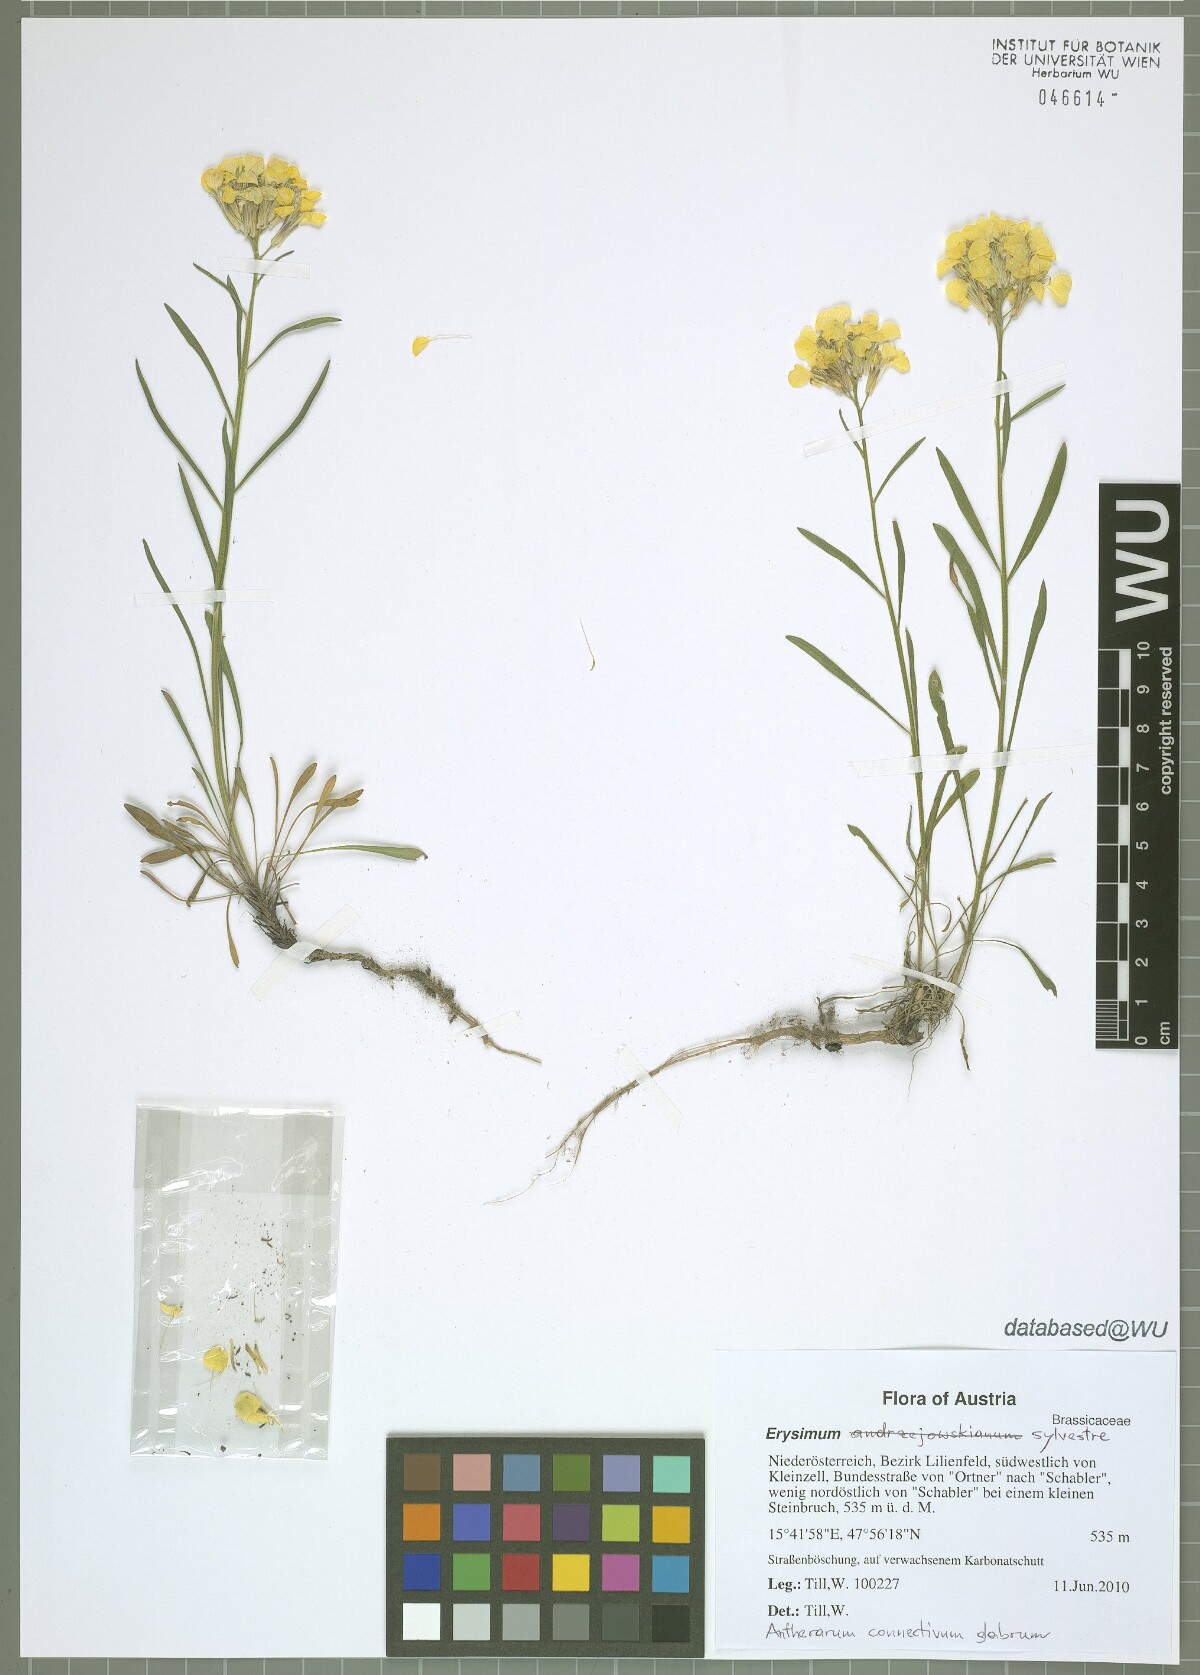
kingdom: Plantae
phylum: Tracheophyta
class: Magnoliopsida
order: Brassicales
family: Brassicaceae
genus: Erysimum
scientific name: Erysimum sylvestre
